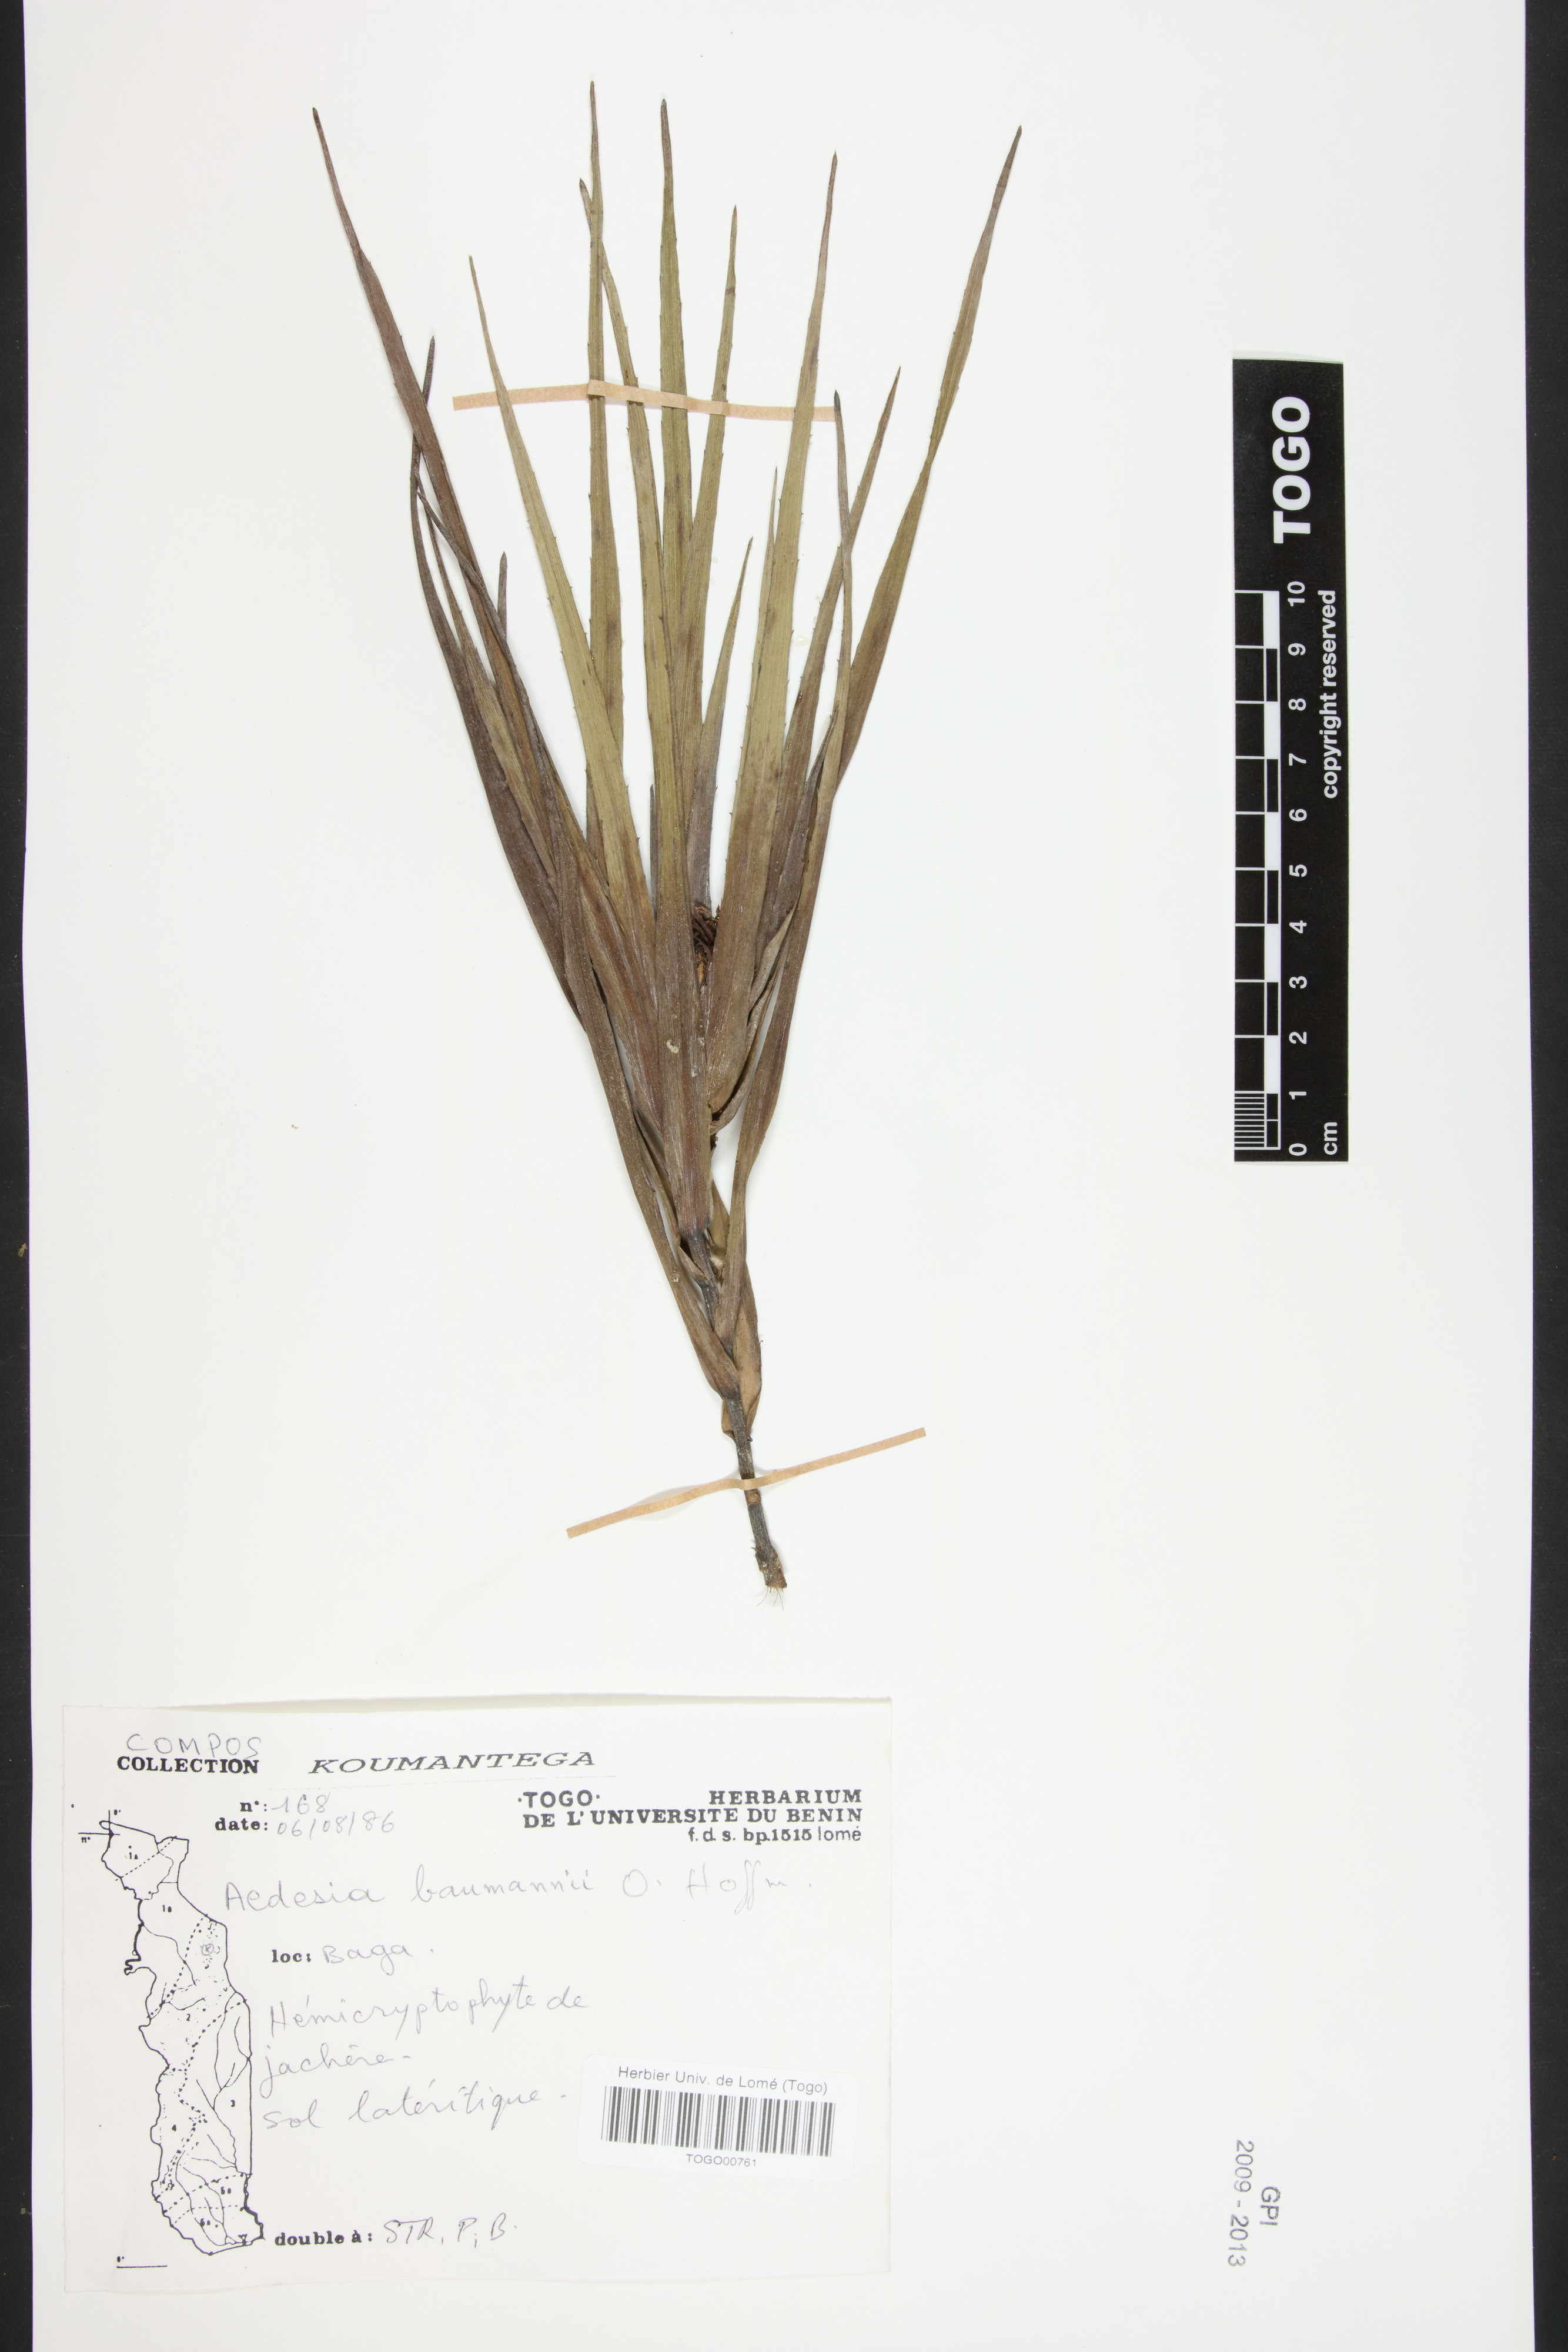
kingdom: Plantae
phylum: Tracheophyta
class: Magnoliopsida
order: Asterales
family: Asteraceae
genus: Aedesia
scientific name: Aedesia glabra
